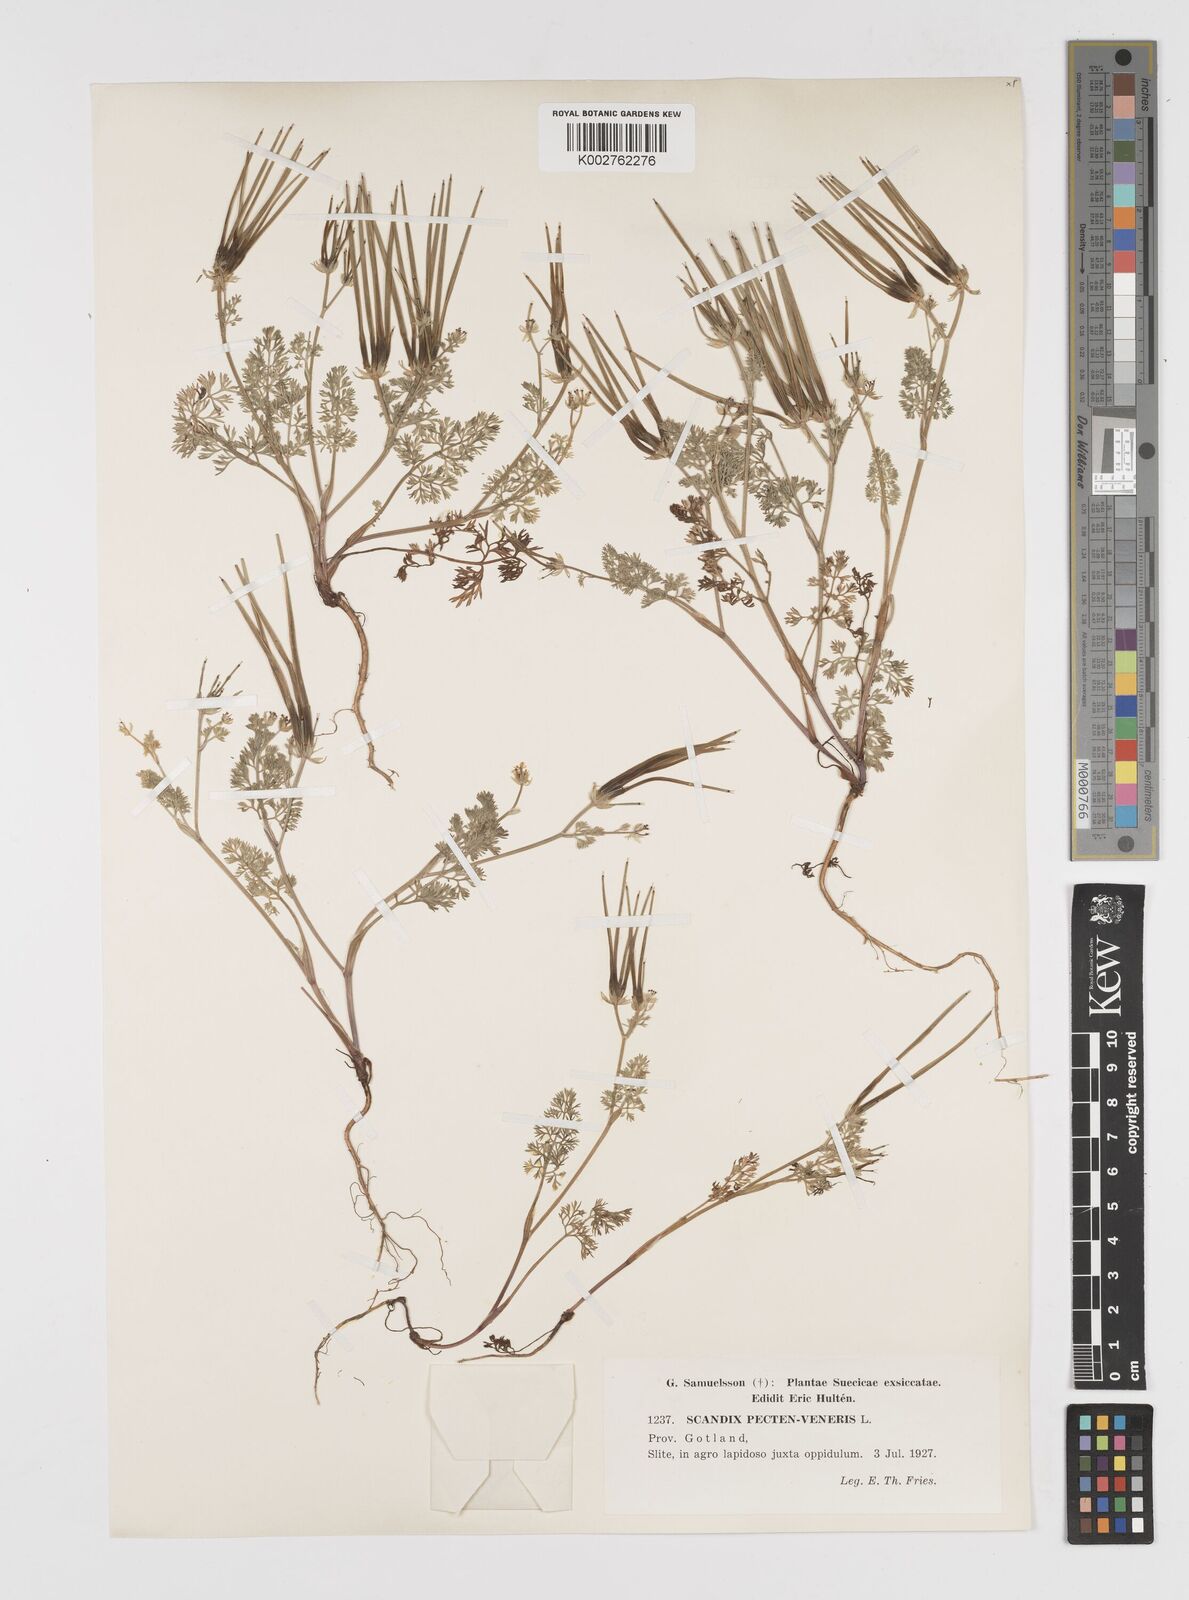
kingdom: Plantae
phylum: Tracheophyta
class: Magnoliopsida
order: Apiales
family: Apiaceae
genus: Scandix
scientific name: Scandix pecten-veneris
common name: Shepherd's-needle
